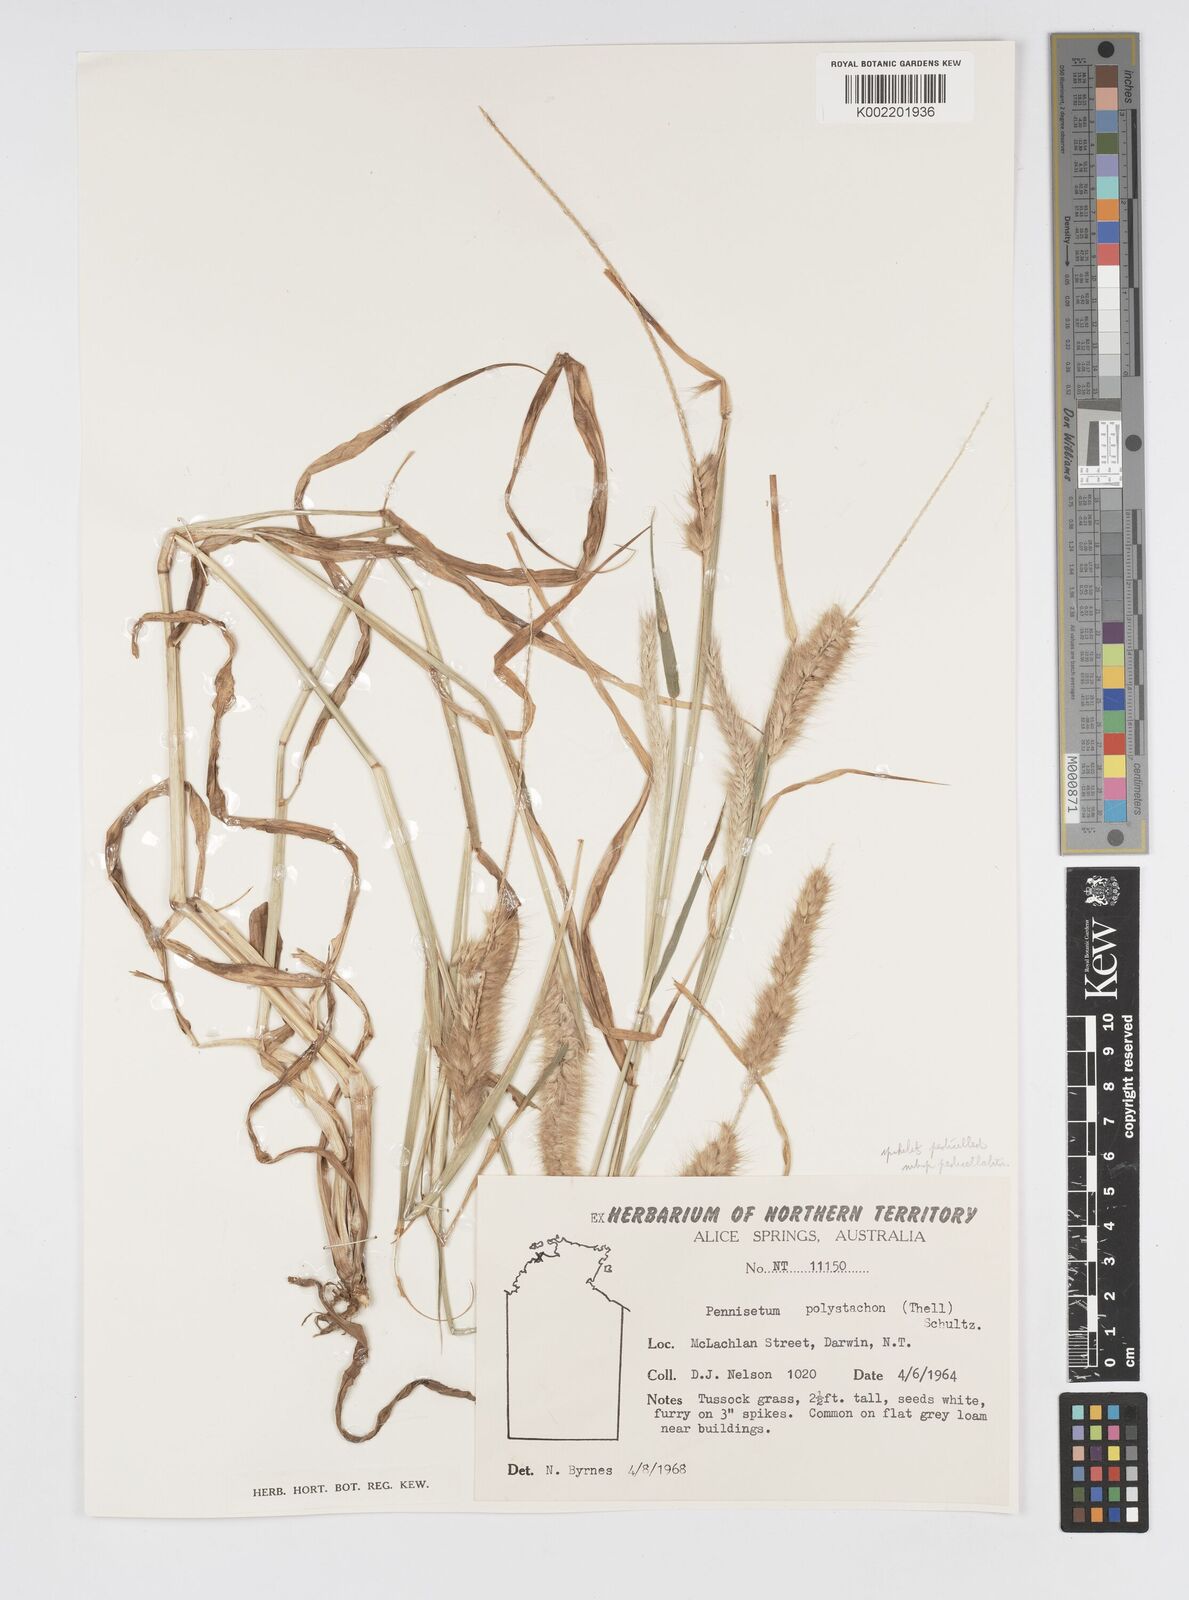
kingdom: Plantae
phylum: Tracheophyta
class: Liliopsida
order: Poales
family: Poaceae
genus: Cenchrus
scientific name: Cenchrus pedicellatus
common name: Hairy fountain grass
